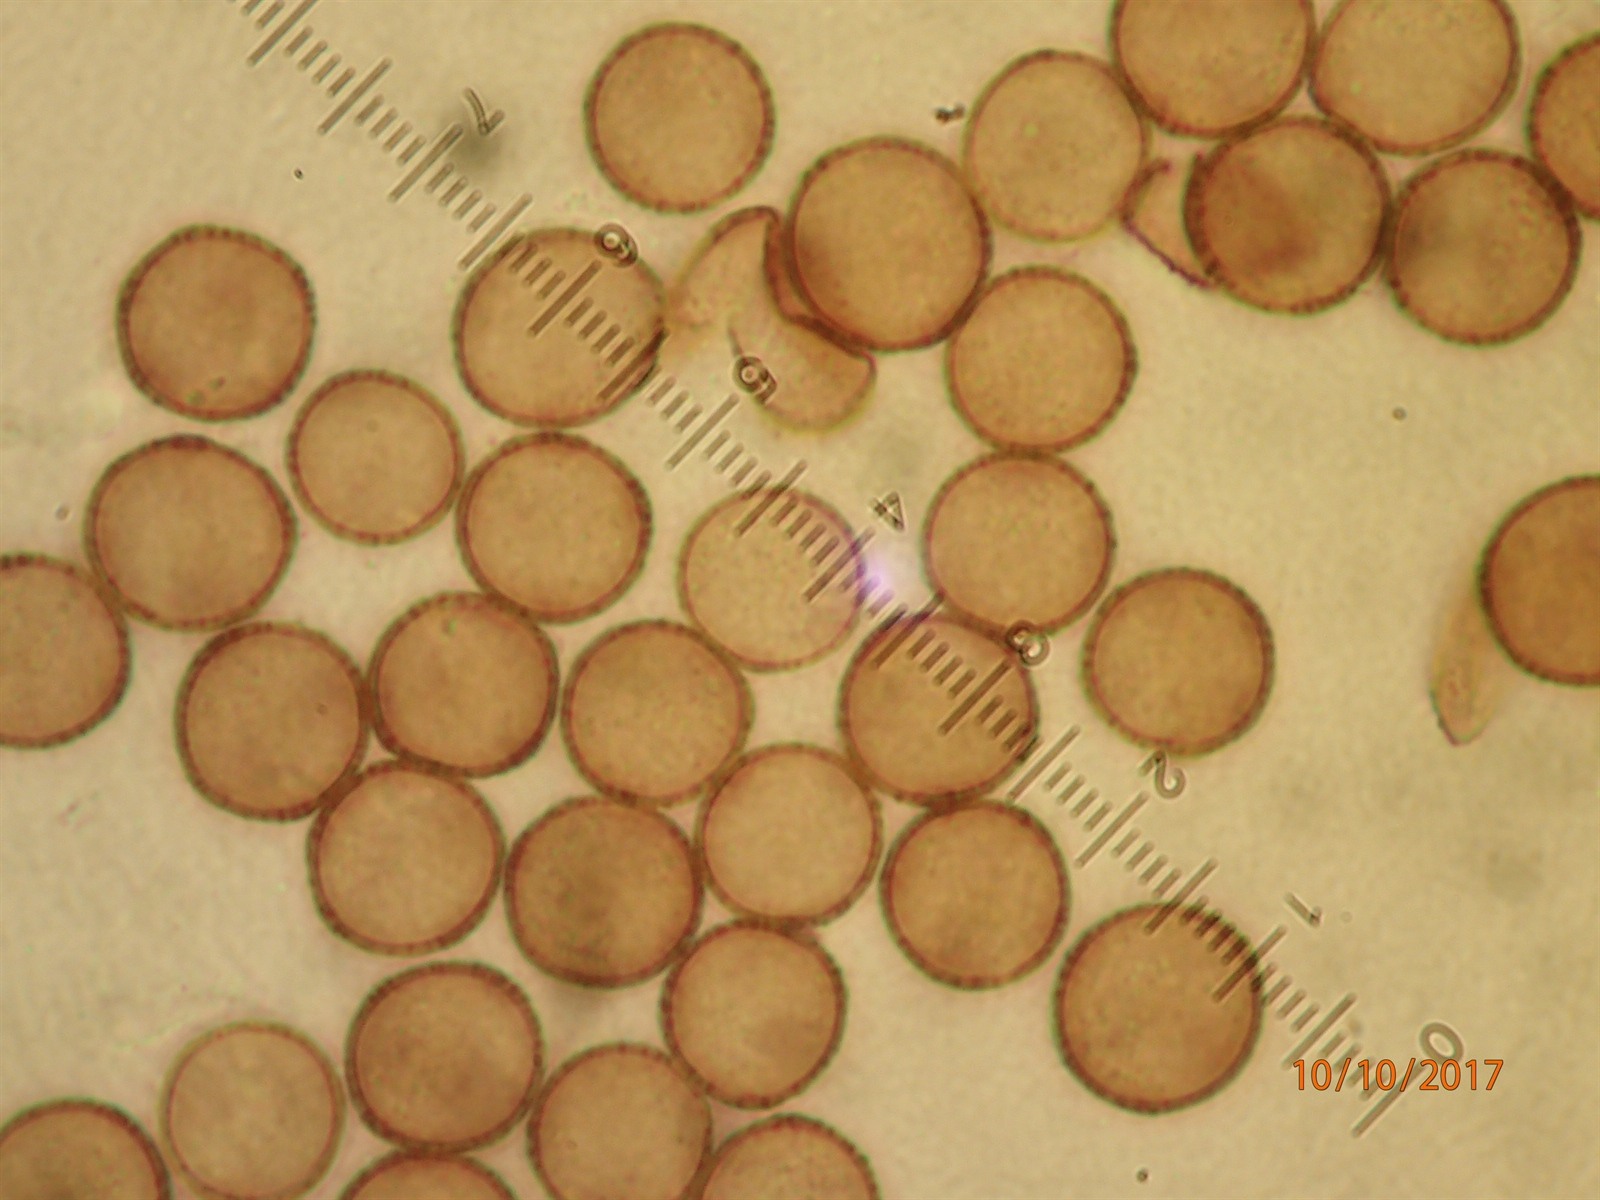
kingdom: Protozoa
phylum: Mycetozoa
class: Myxomycetes
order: Stemonitidales
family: Stemonitidaceae
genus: Diacheopsis
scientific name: Diacheopsis vermicularis
